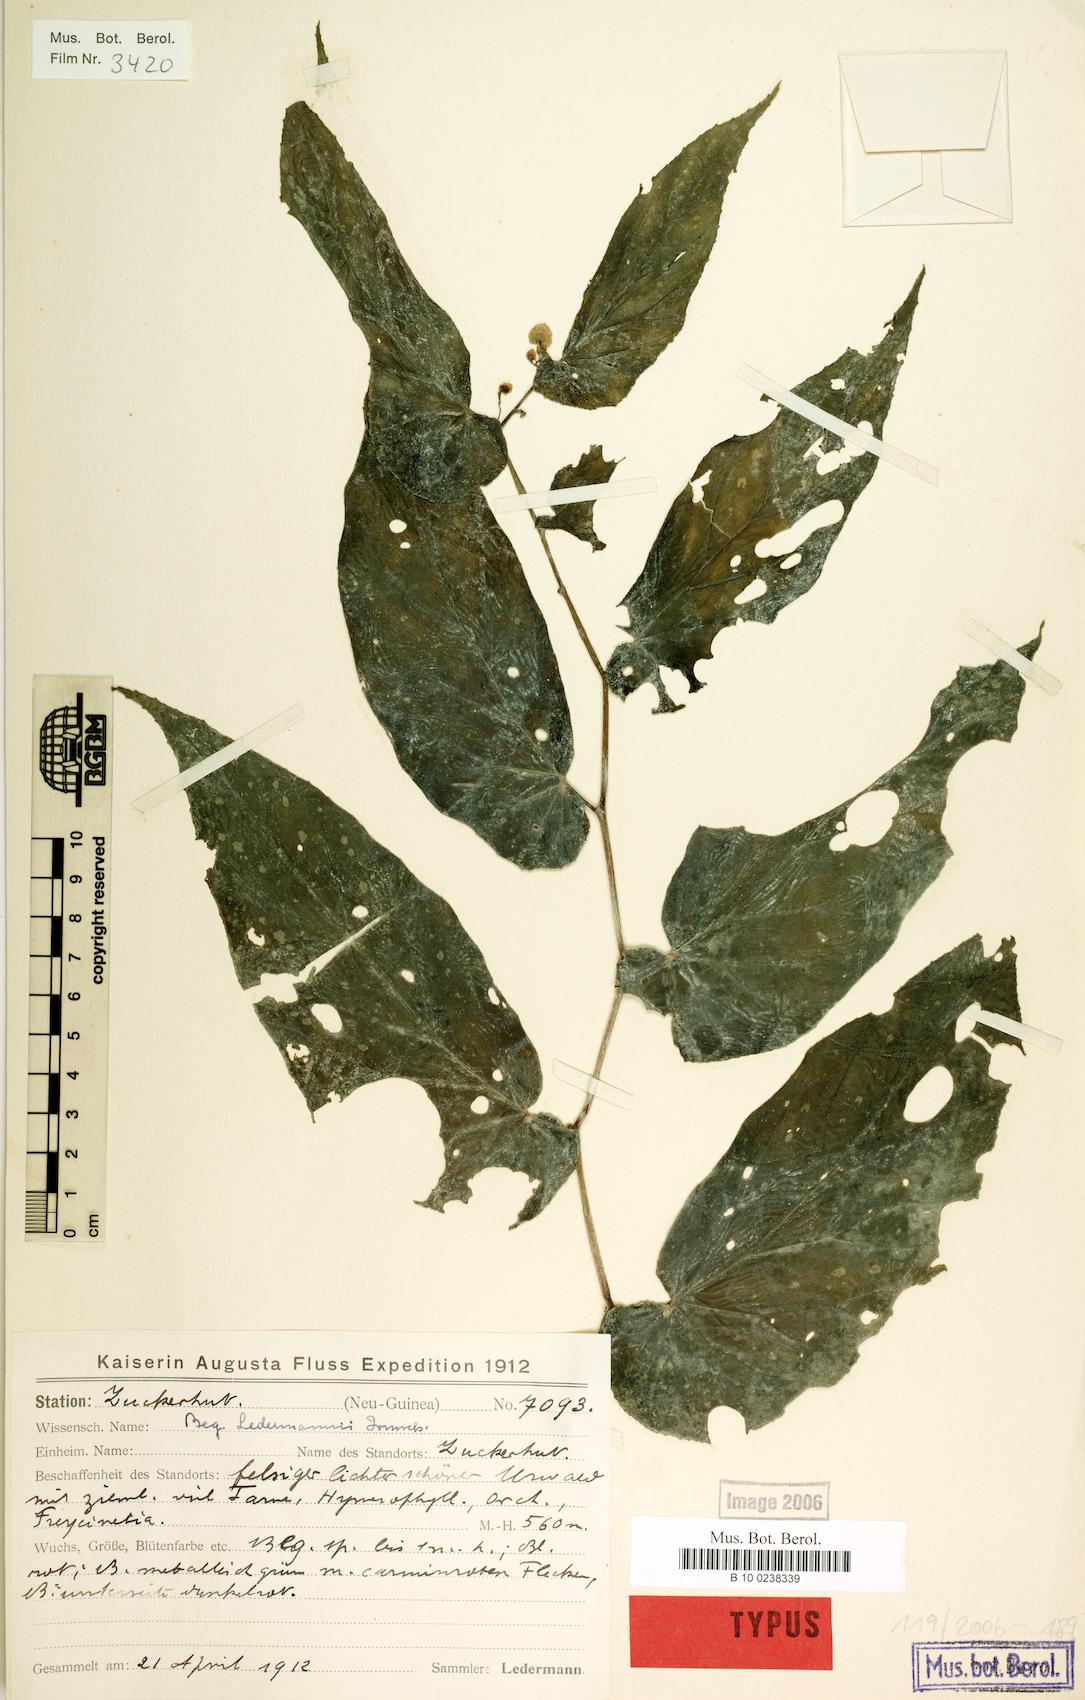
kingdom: Plantae
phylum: Tracheophyta
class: Magnoliopsida
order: Cucurbitales
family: Begoniaceae
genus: Begonia
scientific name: Begonia ledermannii
